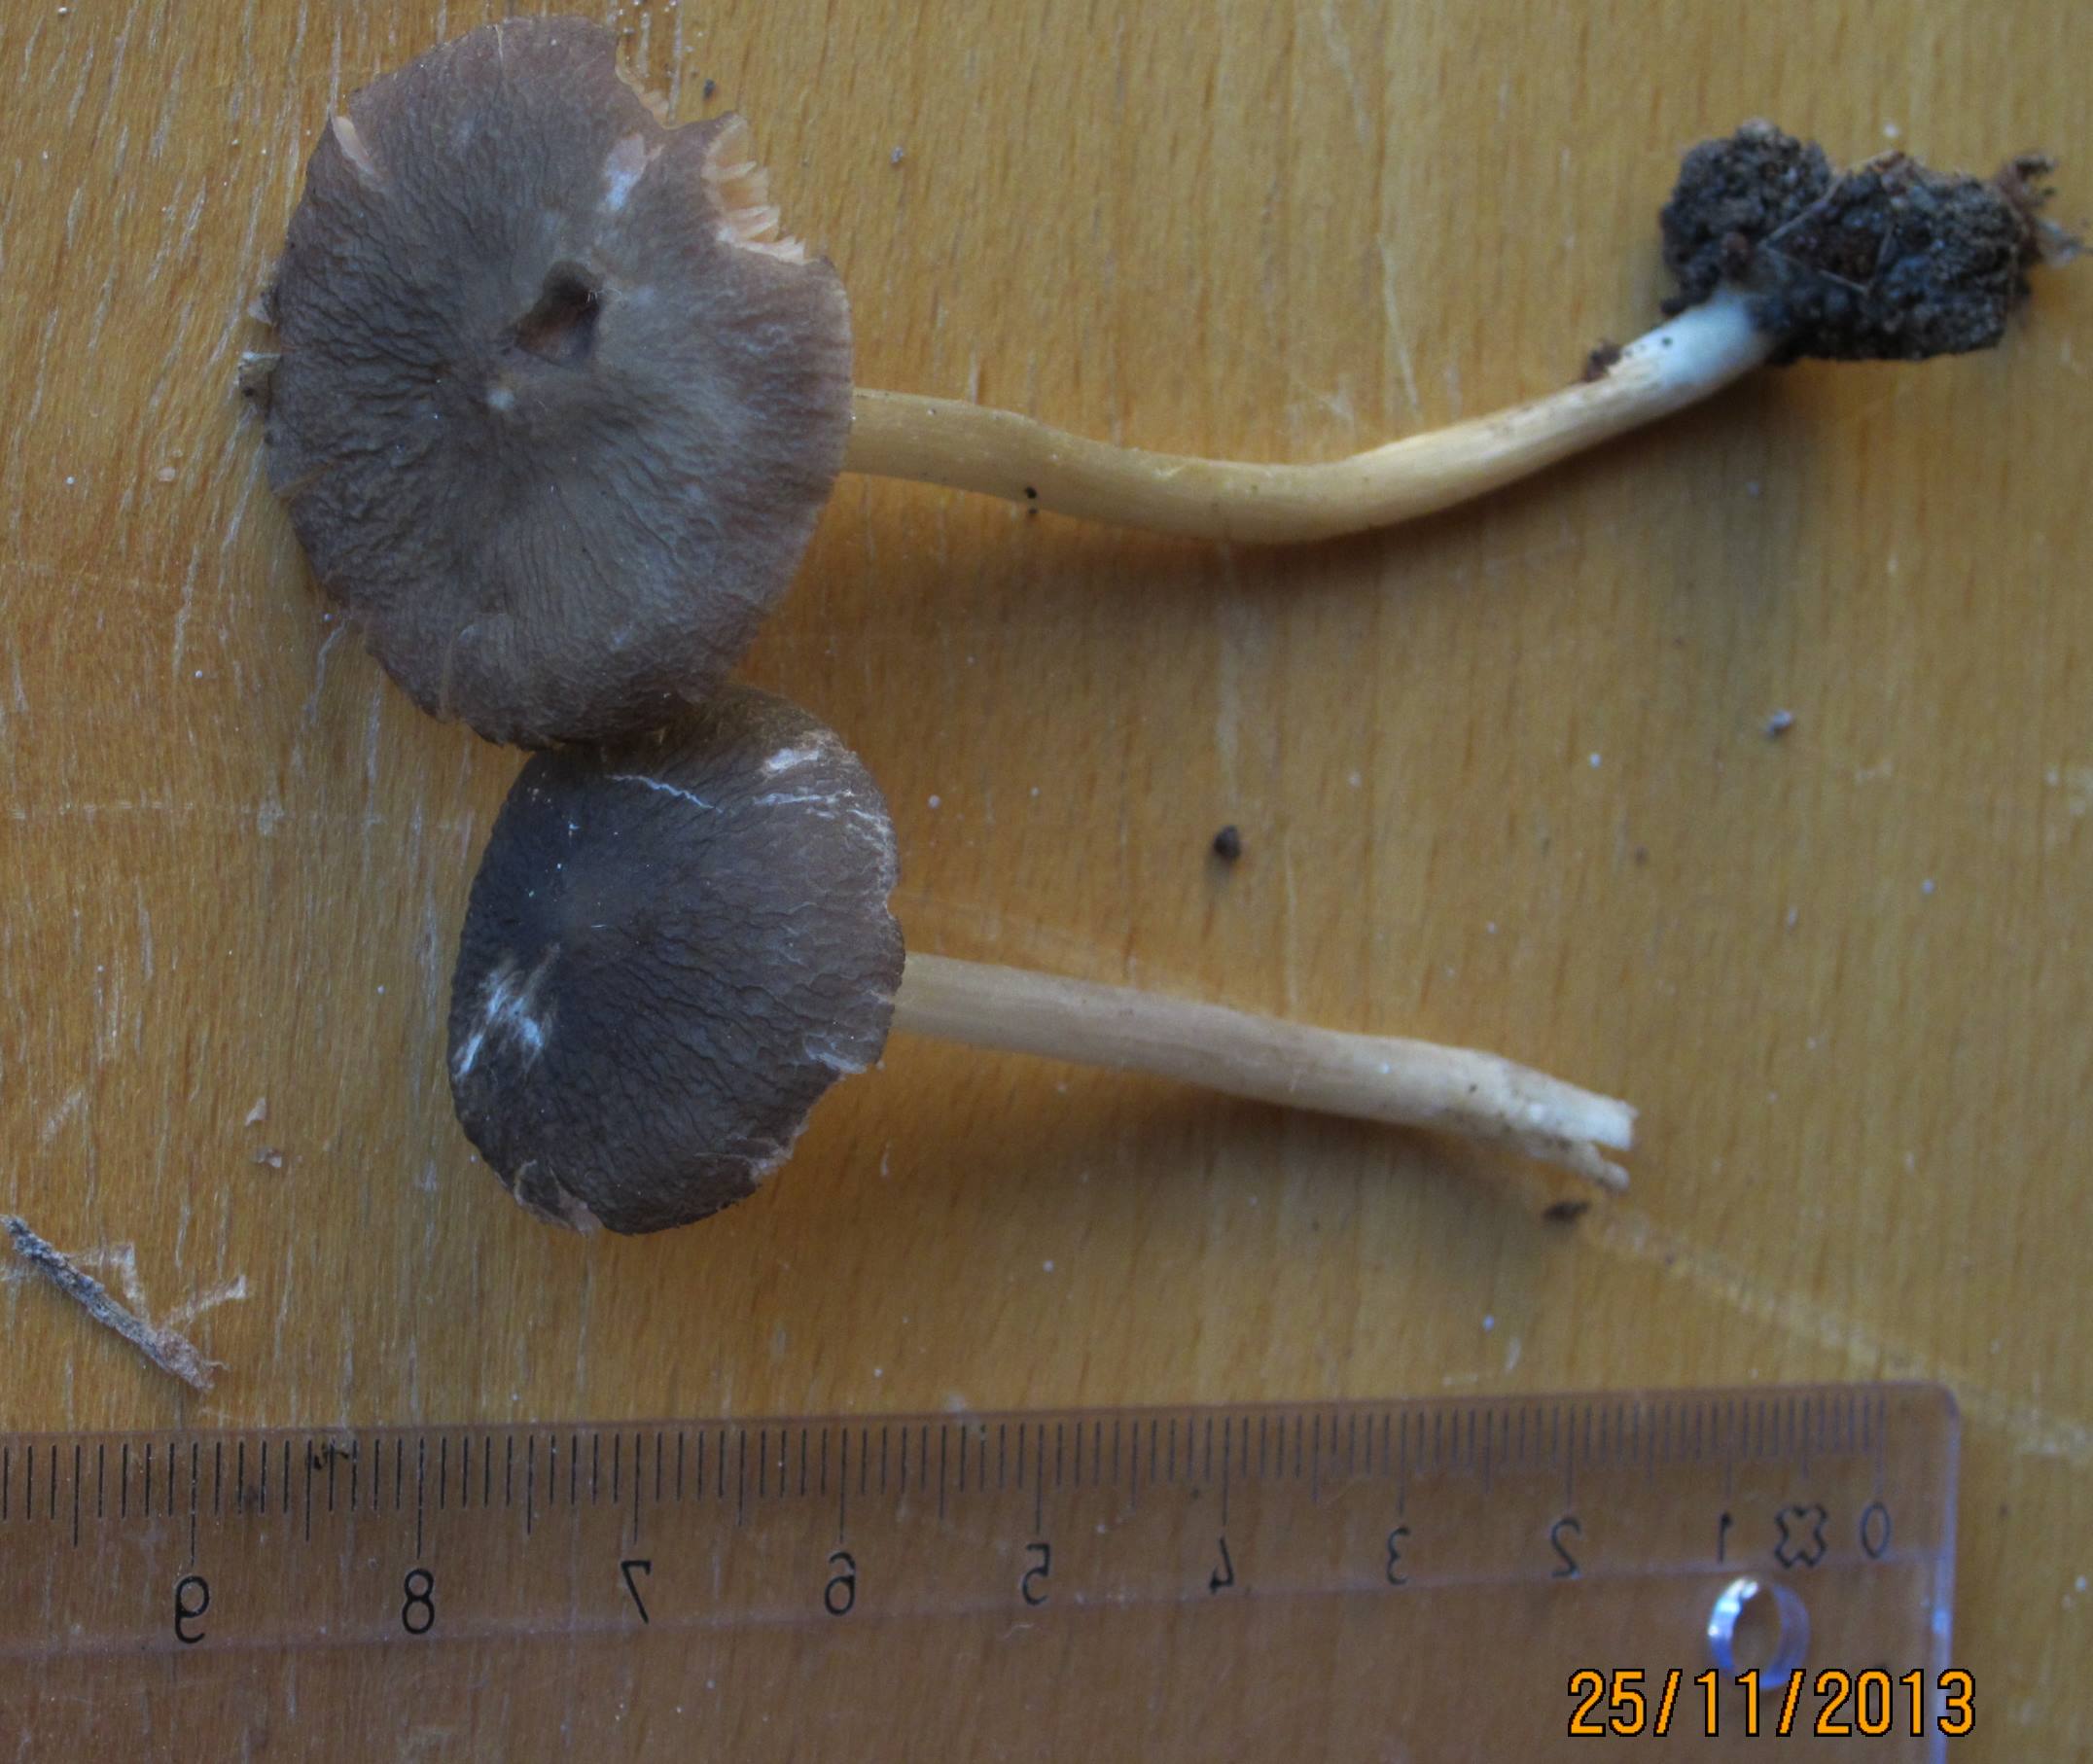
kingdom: Fungi
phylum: Basidiomycota
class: Agaricomycetes
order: Agaricales
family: Pluteaceae
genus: Pluteus
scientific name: Pluteus
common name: pudret skærmhat
